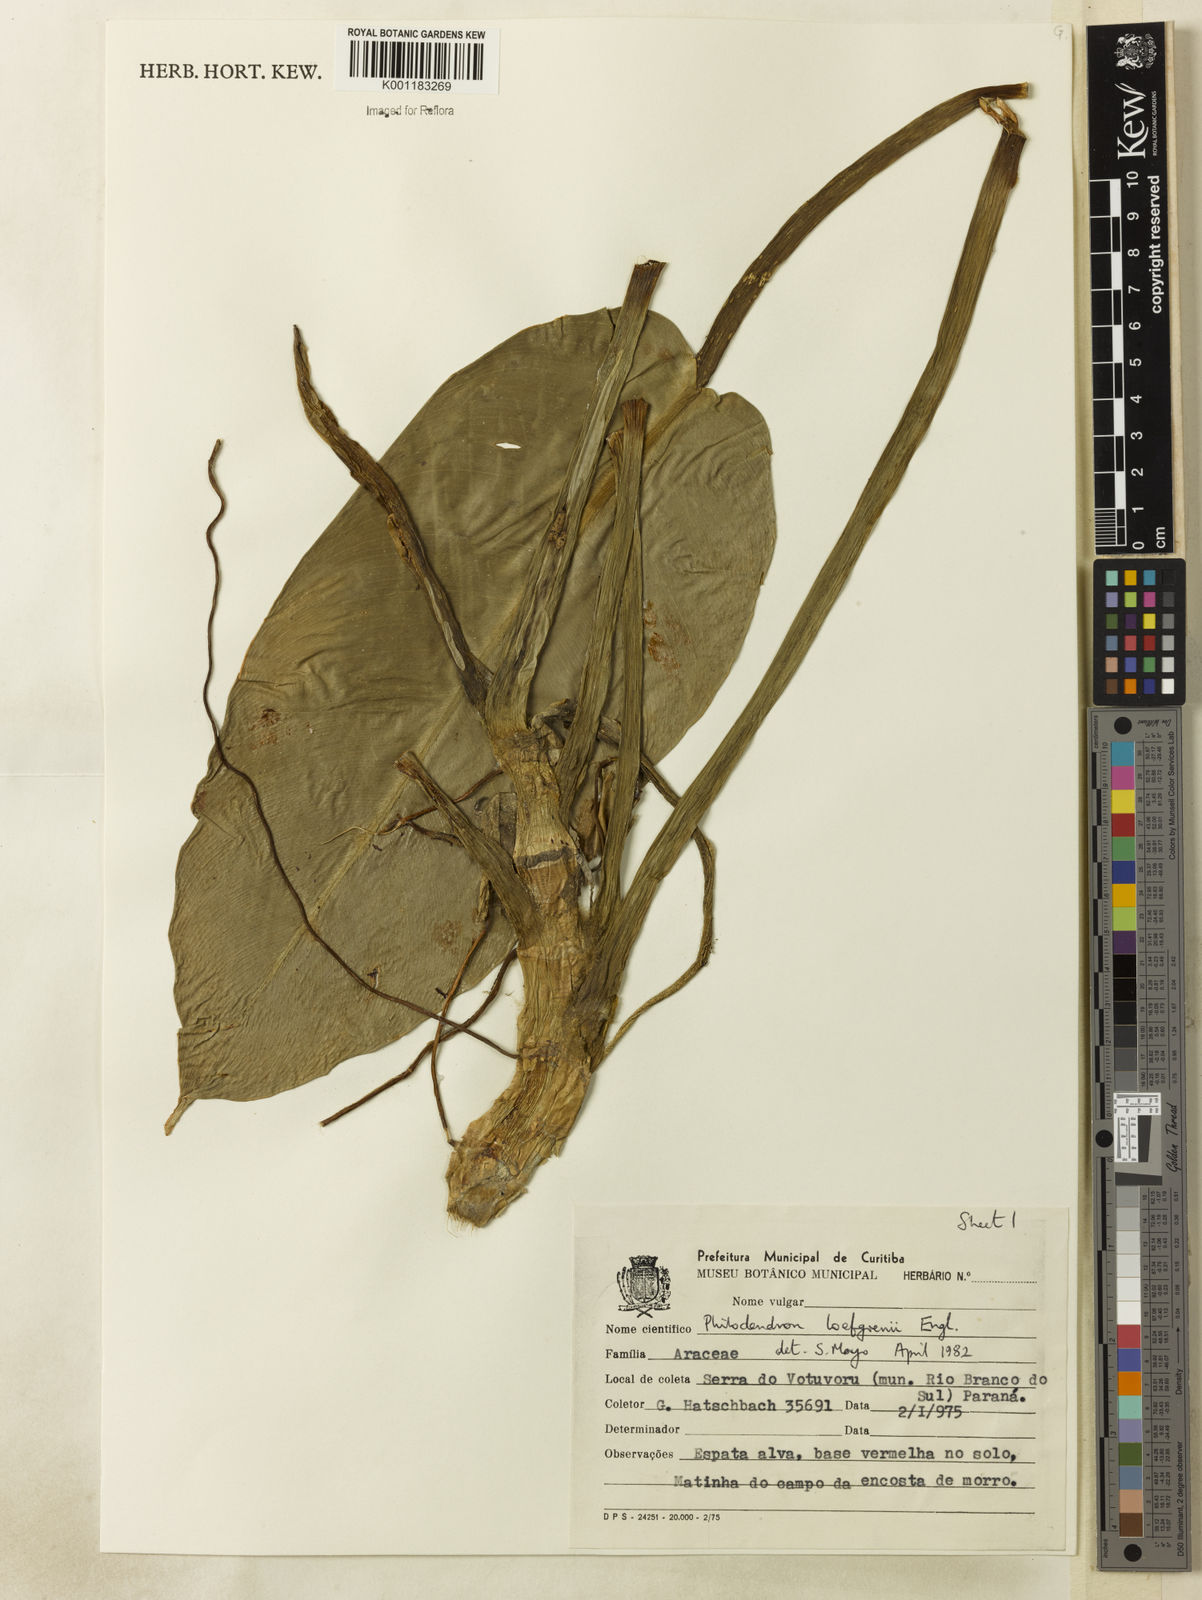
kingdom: Plantae
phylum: Tracheophyta
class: Liliopsida
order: Alismatales
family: Araceae
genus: Philodendron
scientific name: Philodendron loefgrenii
